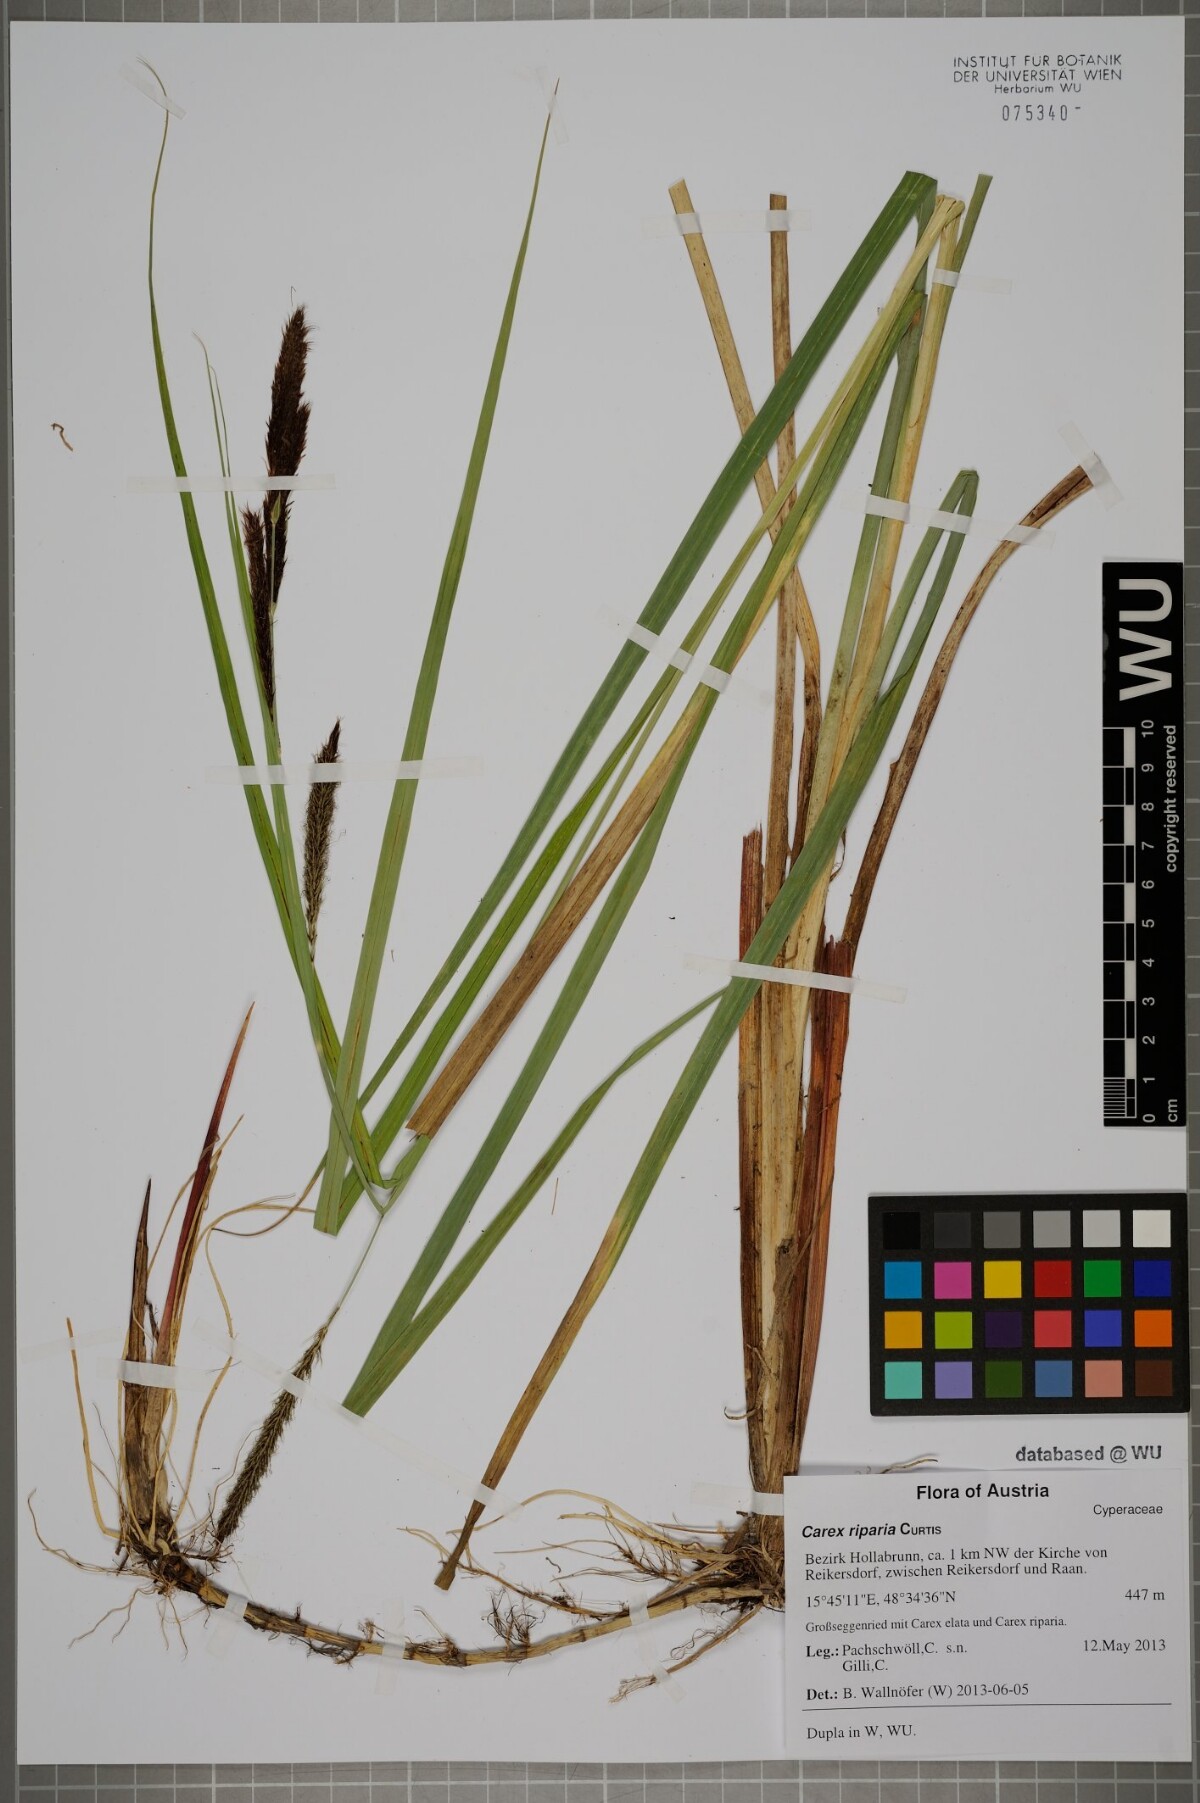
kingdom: Plantae
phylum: Tracheophyta
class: Liliopsida
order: Poales
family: Cyperaceae
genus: Carex
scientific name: Carex riparia
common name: Greater pond-sedge
